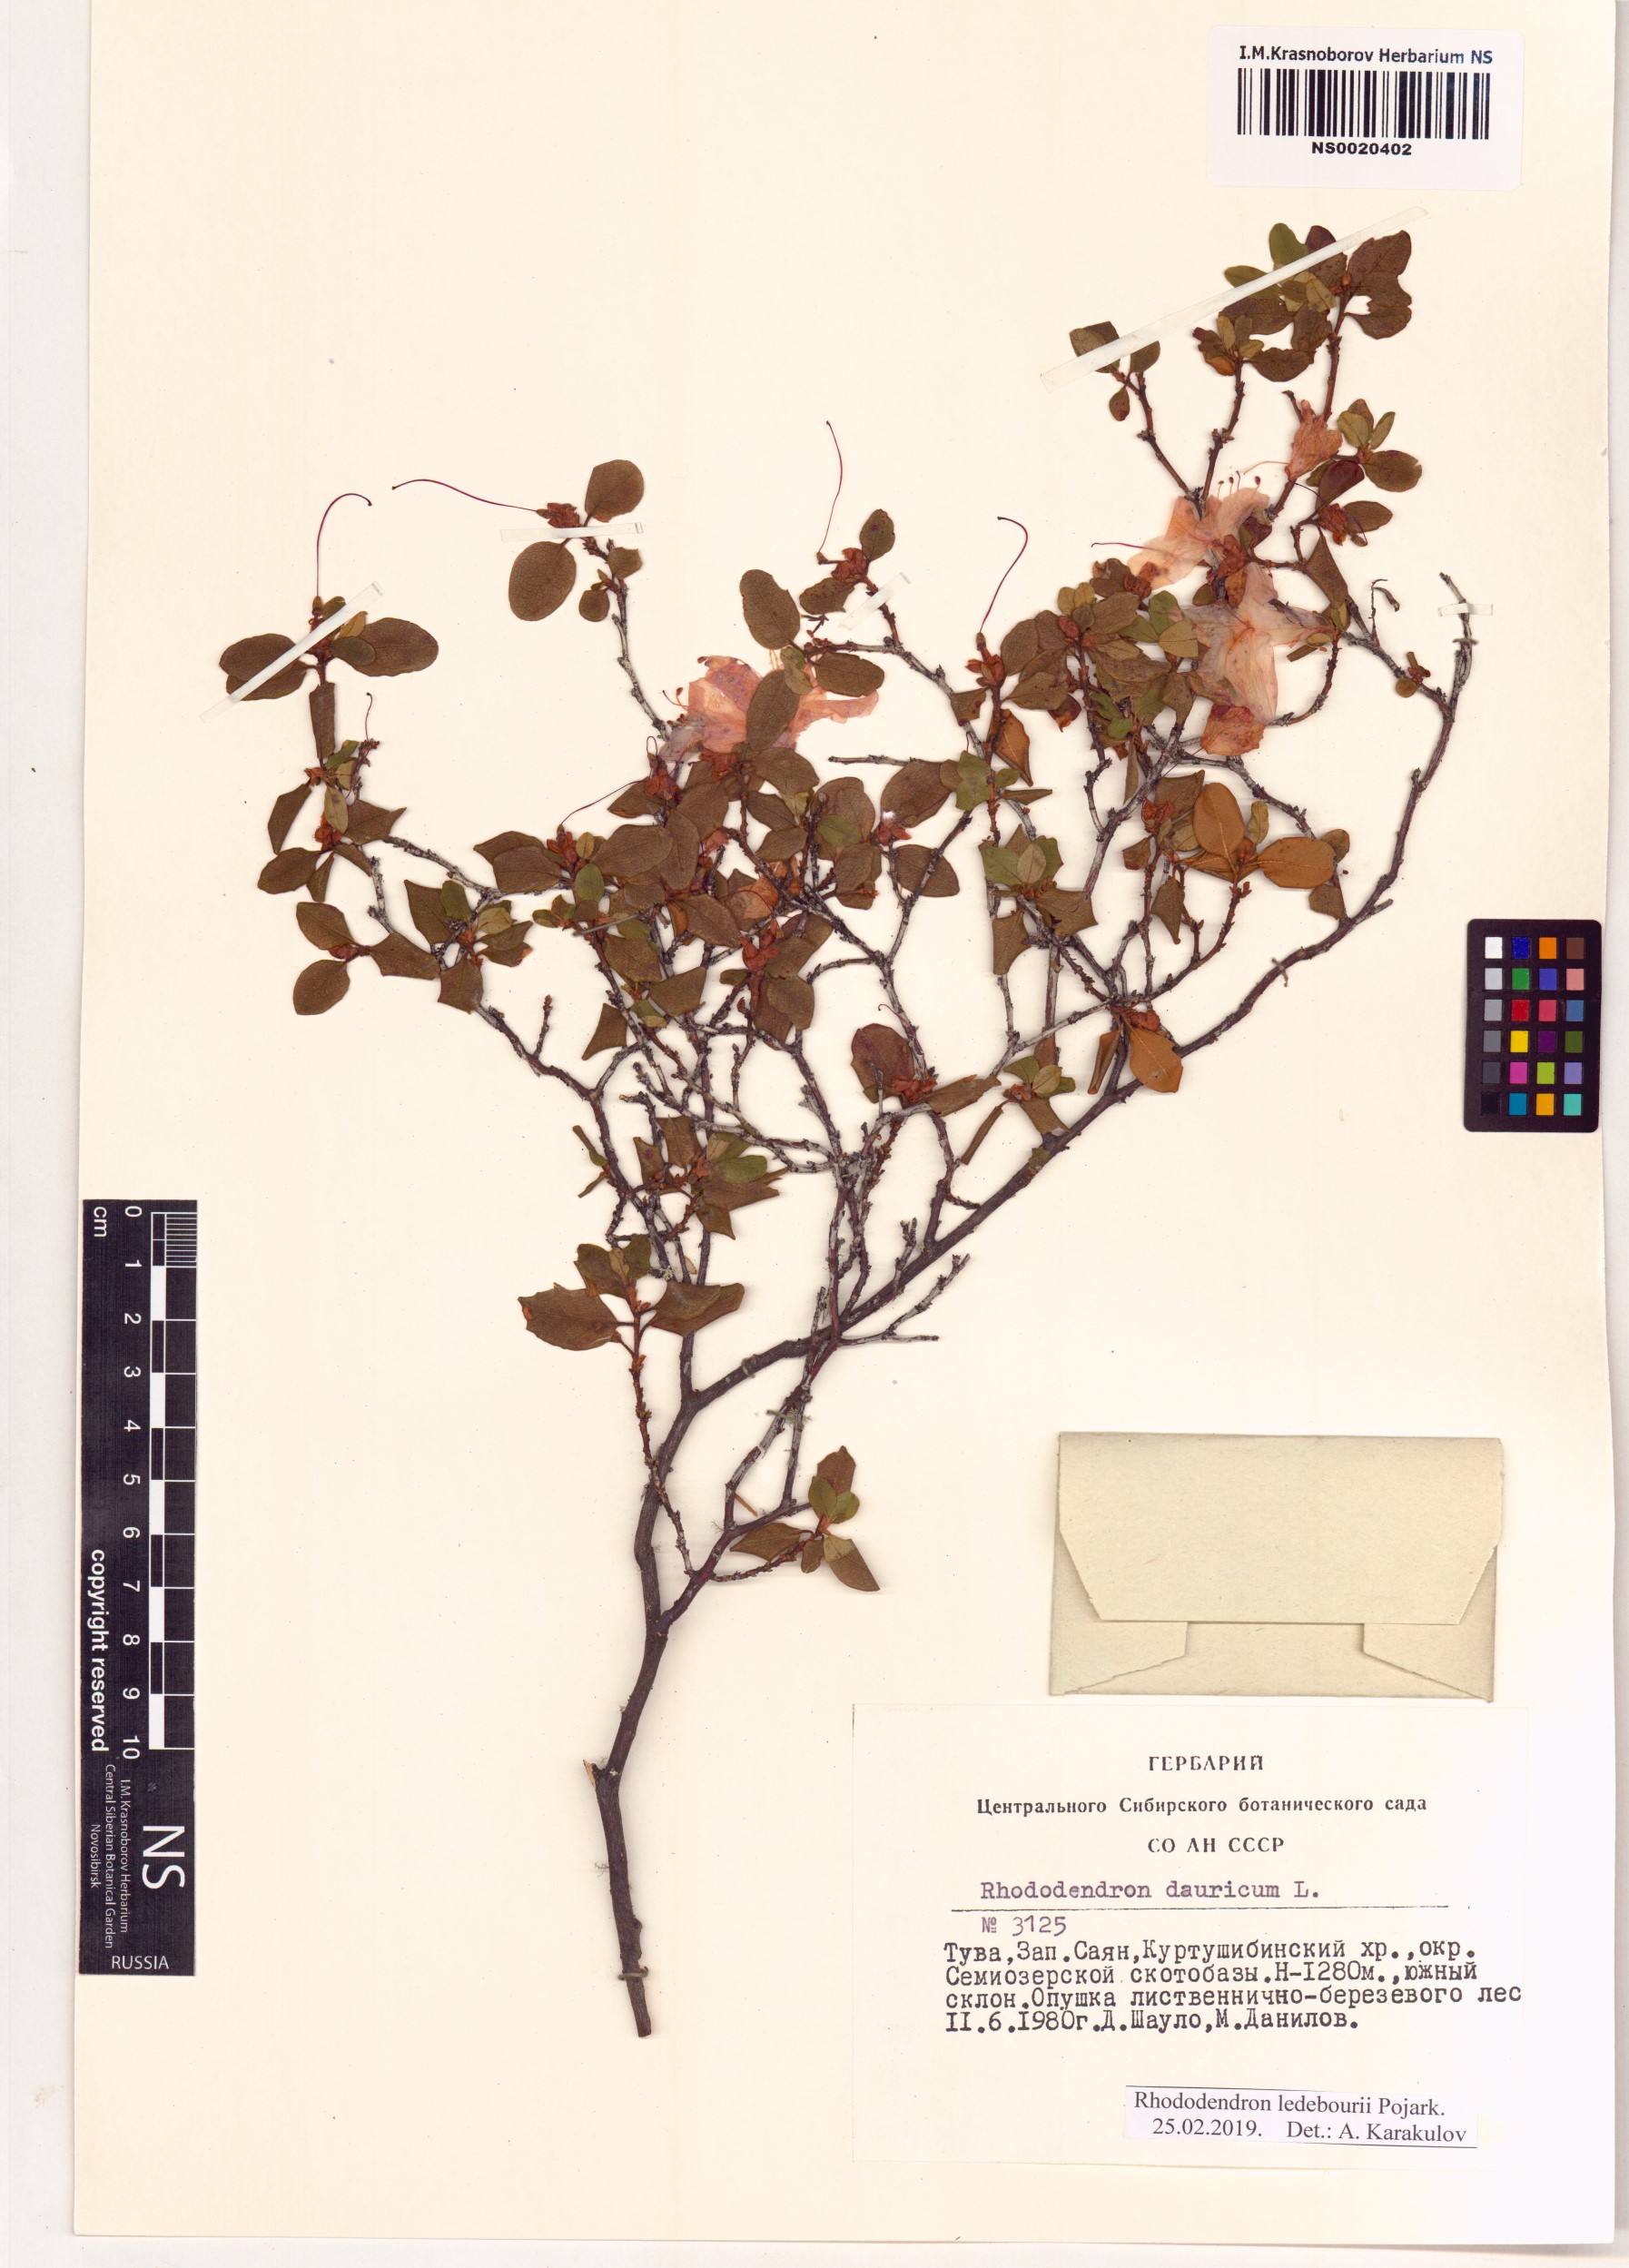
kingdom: Plantae
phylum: Tracheophyta
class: Magnoliopsida
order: Ericales
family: Ericaceae
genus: Rhododendron
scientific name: Rhododendron dauricum
